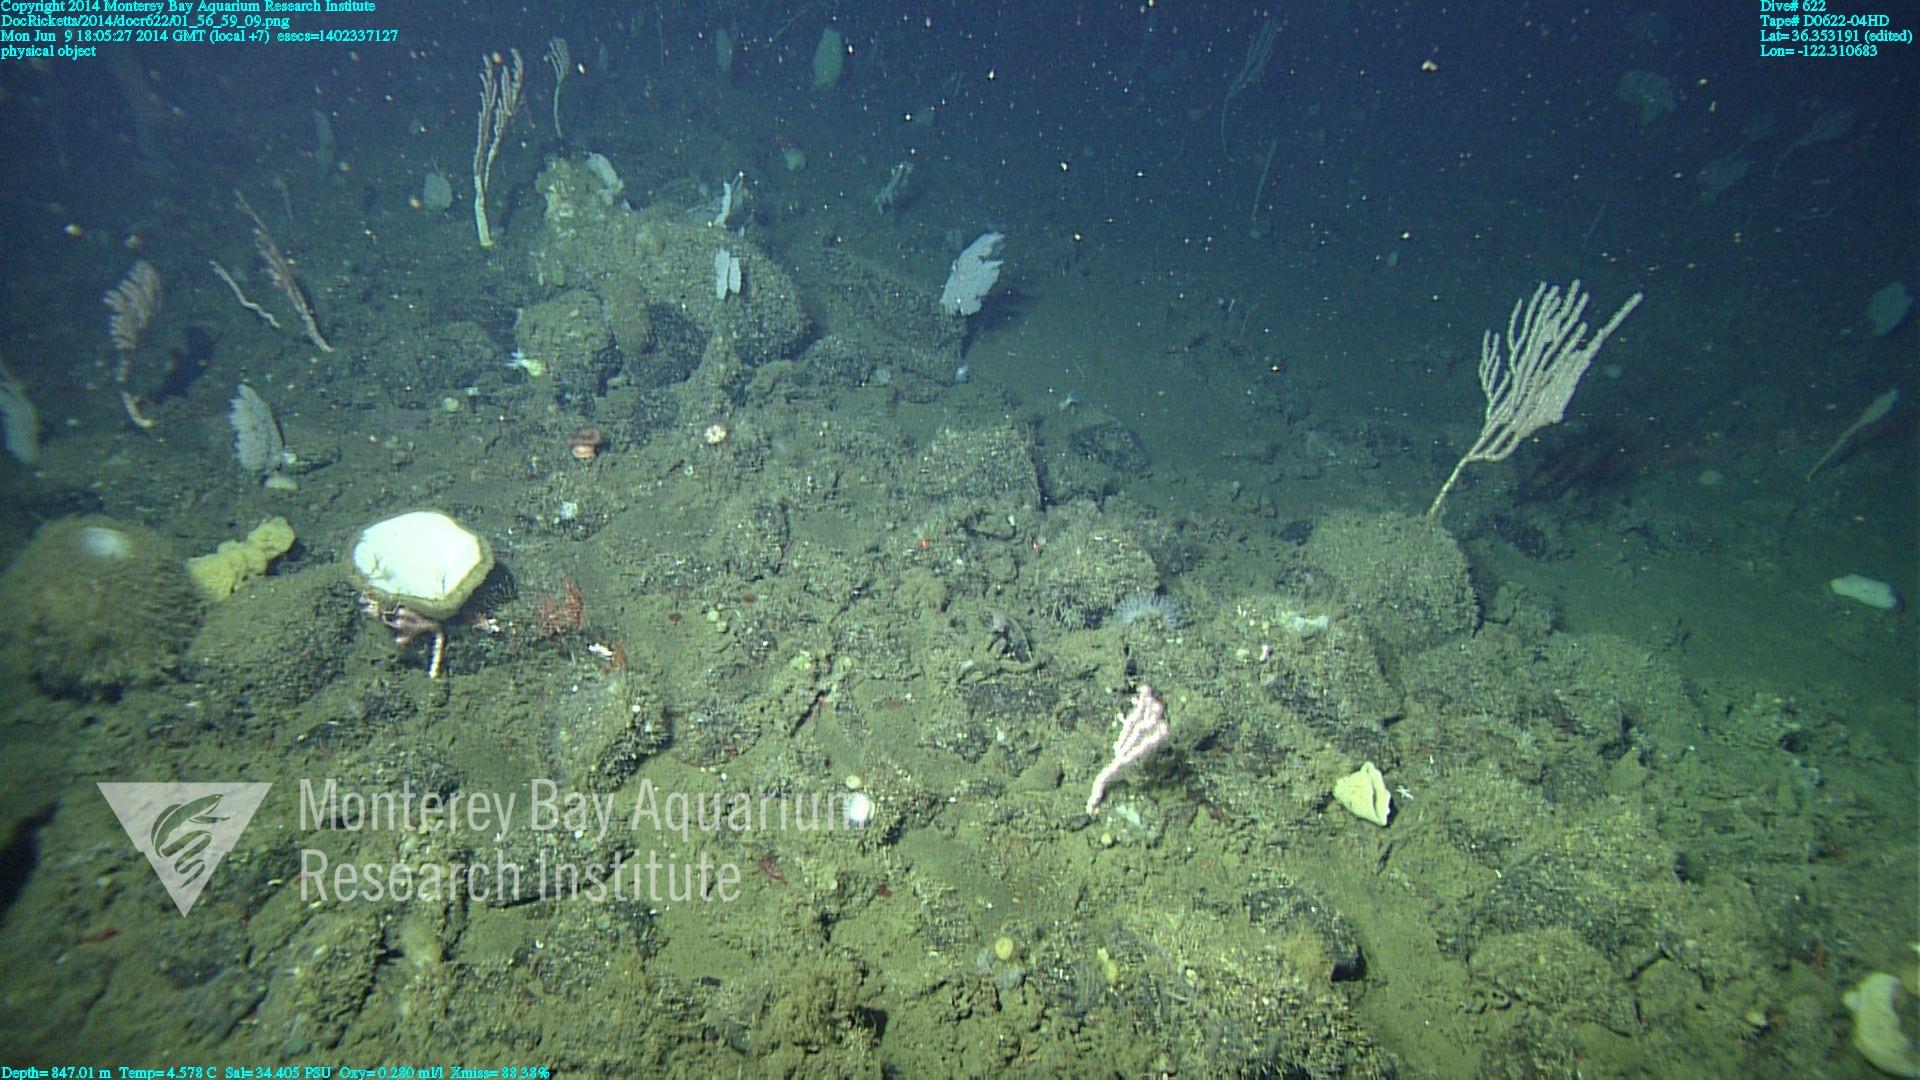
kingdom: Animalia
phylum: Cnidaria
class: Anthozoa
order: Scleralcyonacea
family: Keratoisididae
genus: Isidella
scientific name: Isidella
